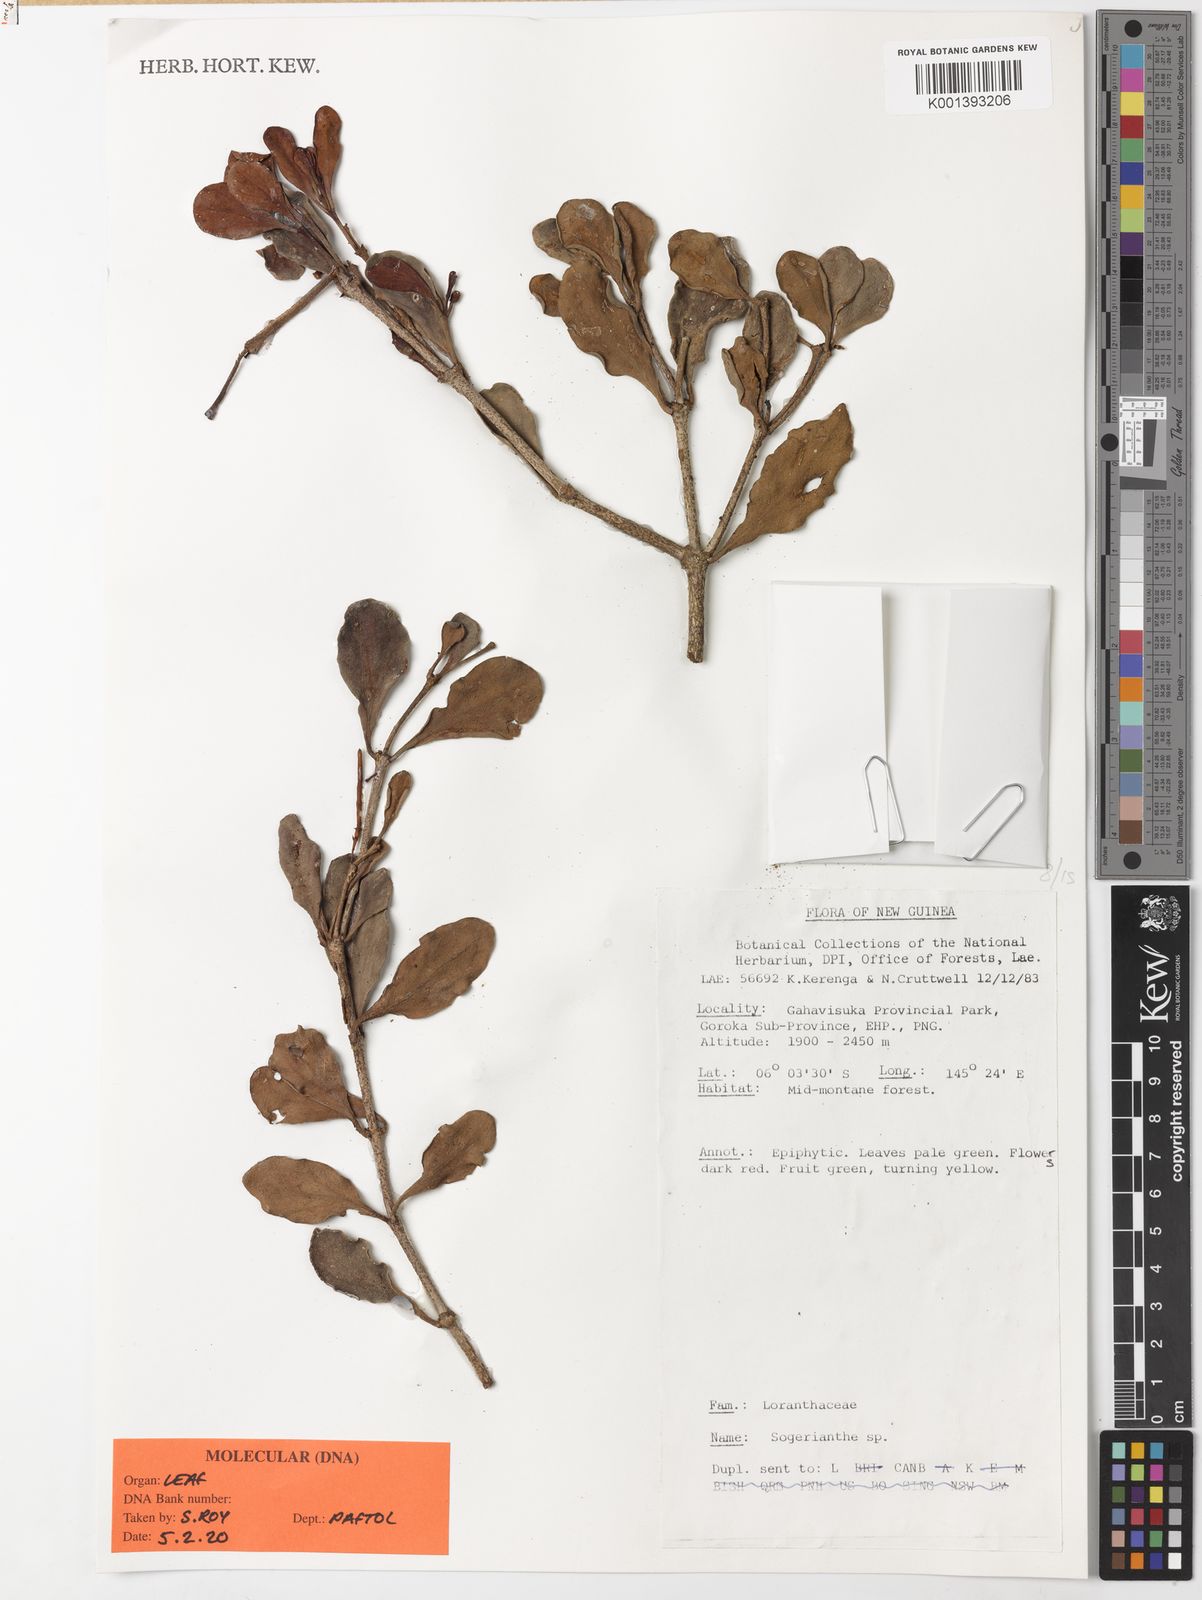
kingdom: Plantae
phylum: Tracheophyta
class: Magnoliopsida
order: Santalales
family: Loranthaceae
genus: Sogerianthe
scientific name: Sogerianthe
